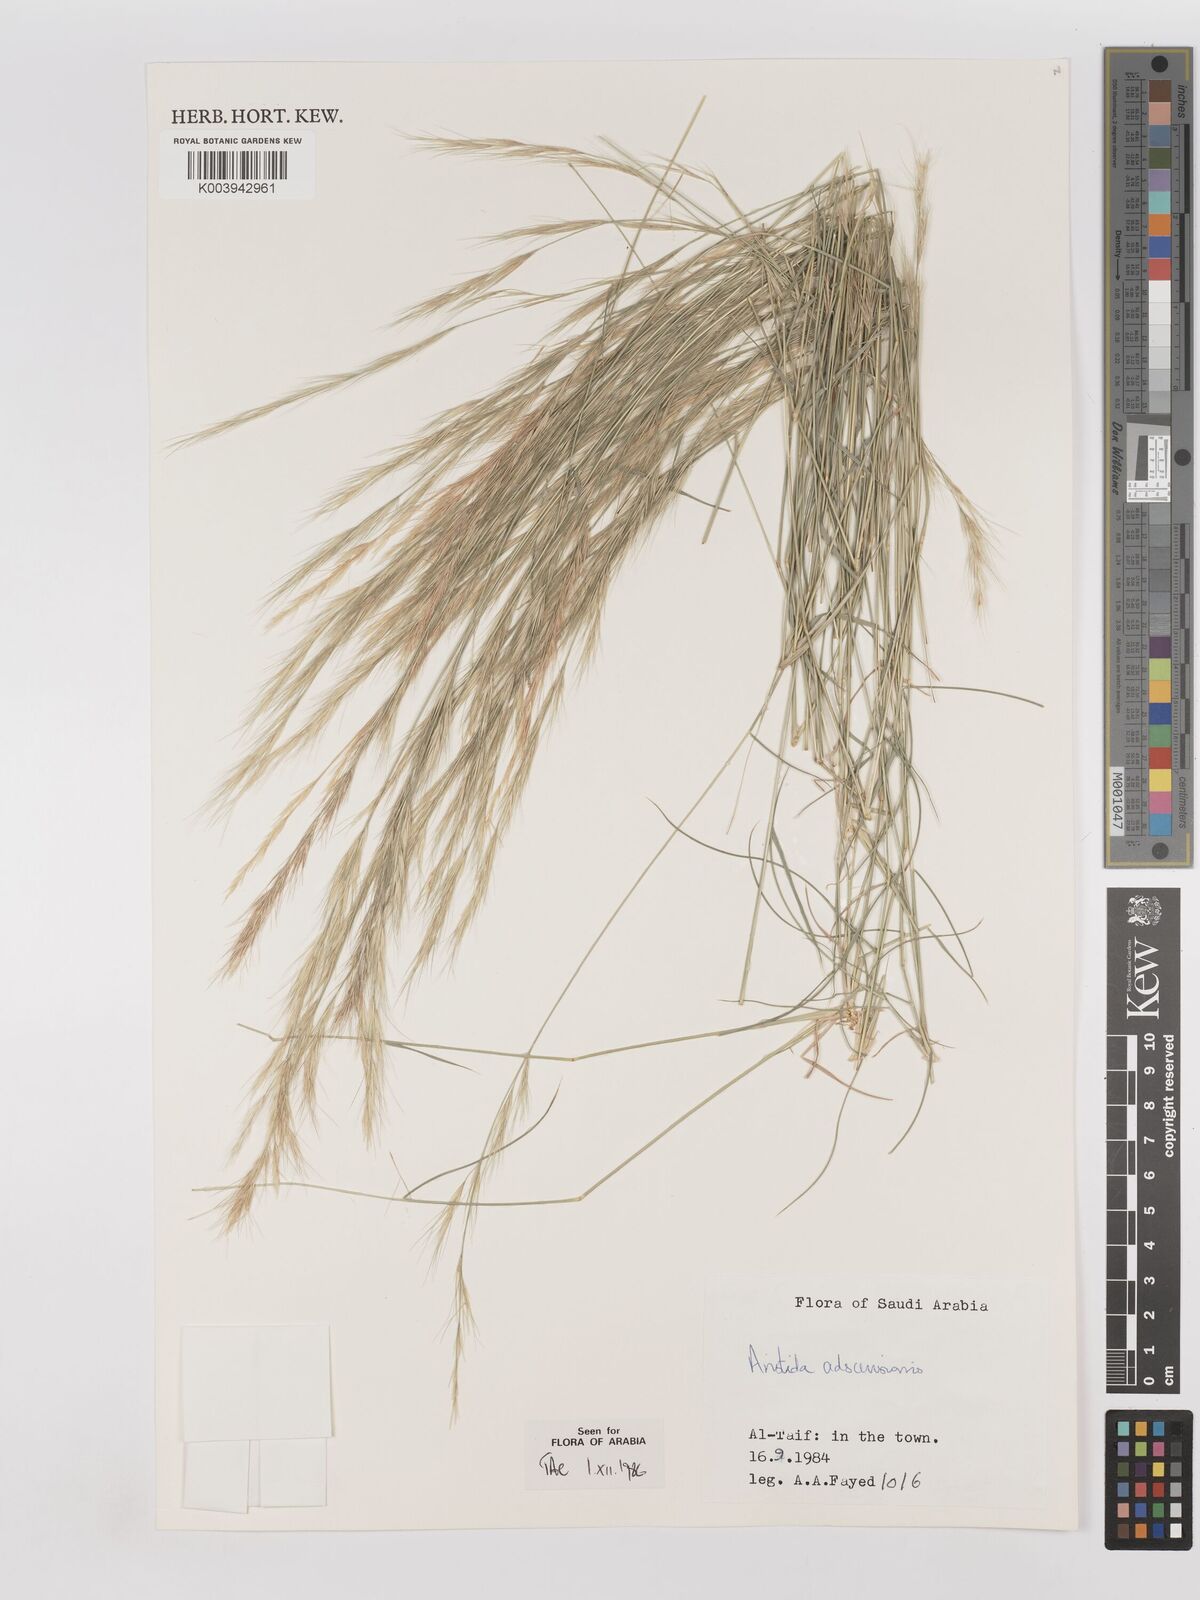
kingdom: Plantae
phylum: Tracheophyta
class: Liliopsida
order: Poales
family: Poaceae
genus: Aristida
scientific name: Aristida adscensionis
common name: Sixweeks threeawn
